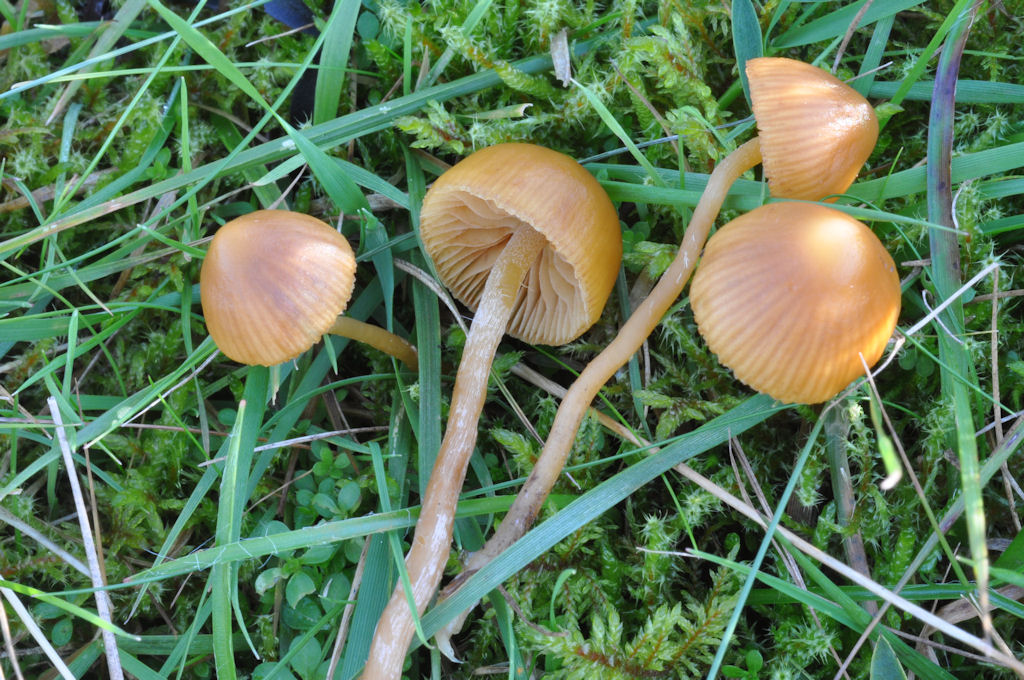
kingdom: Fungi
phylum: Basidiomycota
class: Agaricomycetes
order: Agaricales
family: Hymenogastraceae
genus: Galerina
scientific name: Galerina mniophila
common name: olivengul hjelmhat
